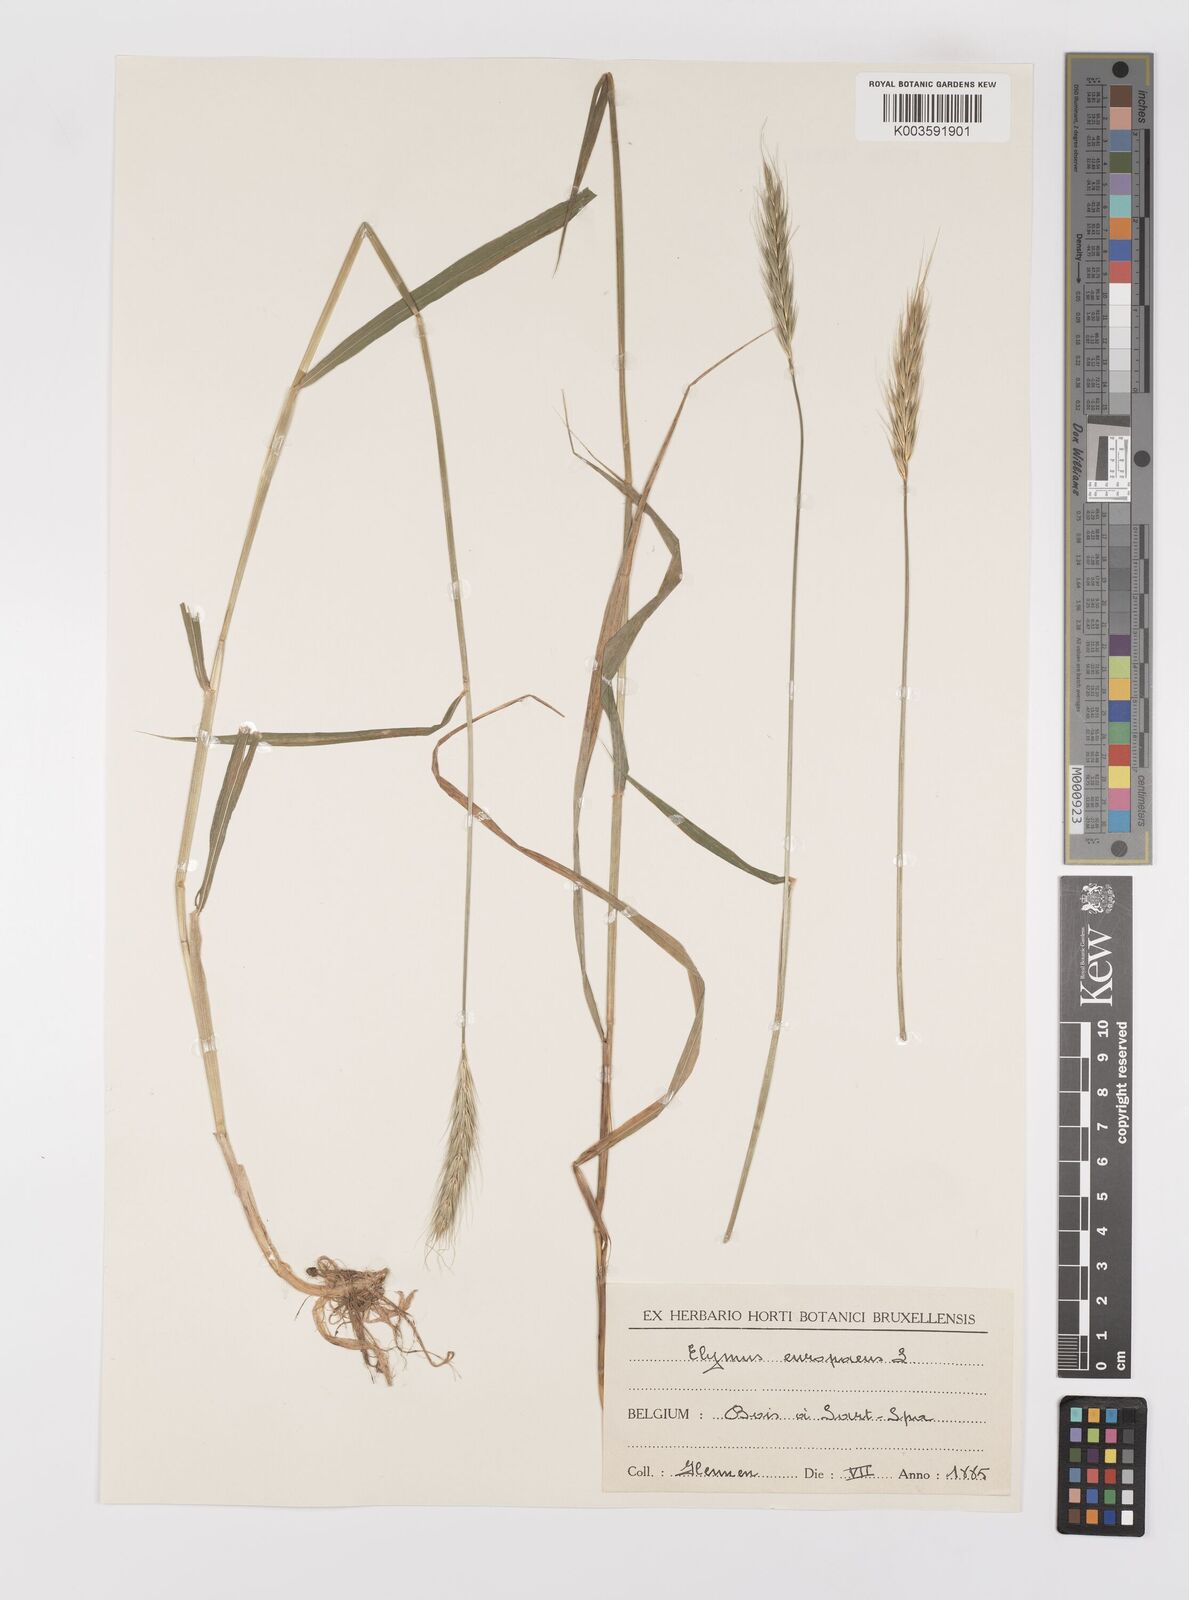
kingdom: Plantae
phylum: Tracheophyta
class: Liliopsida
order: Poales
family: Poaceae
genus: Hordelymus
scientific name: Hordelymus europaeus
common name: Wood-barley
